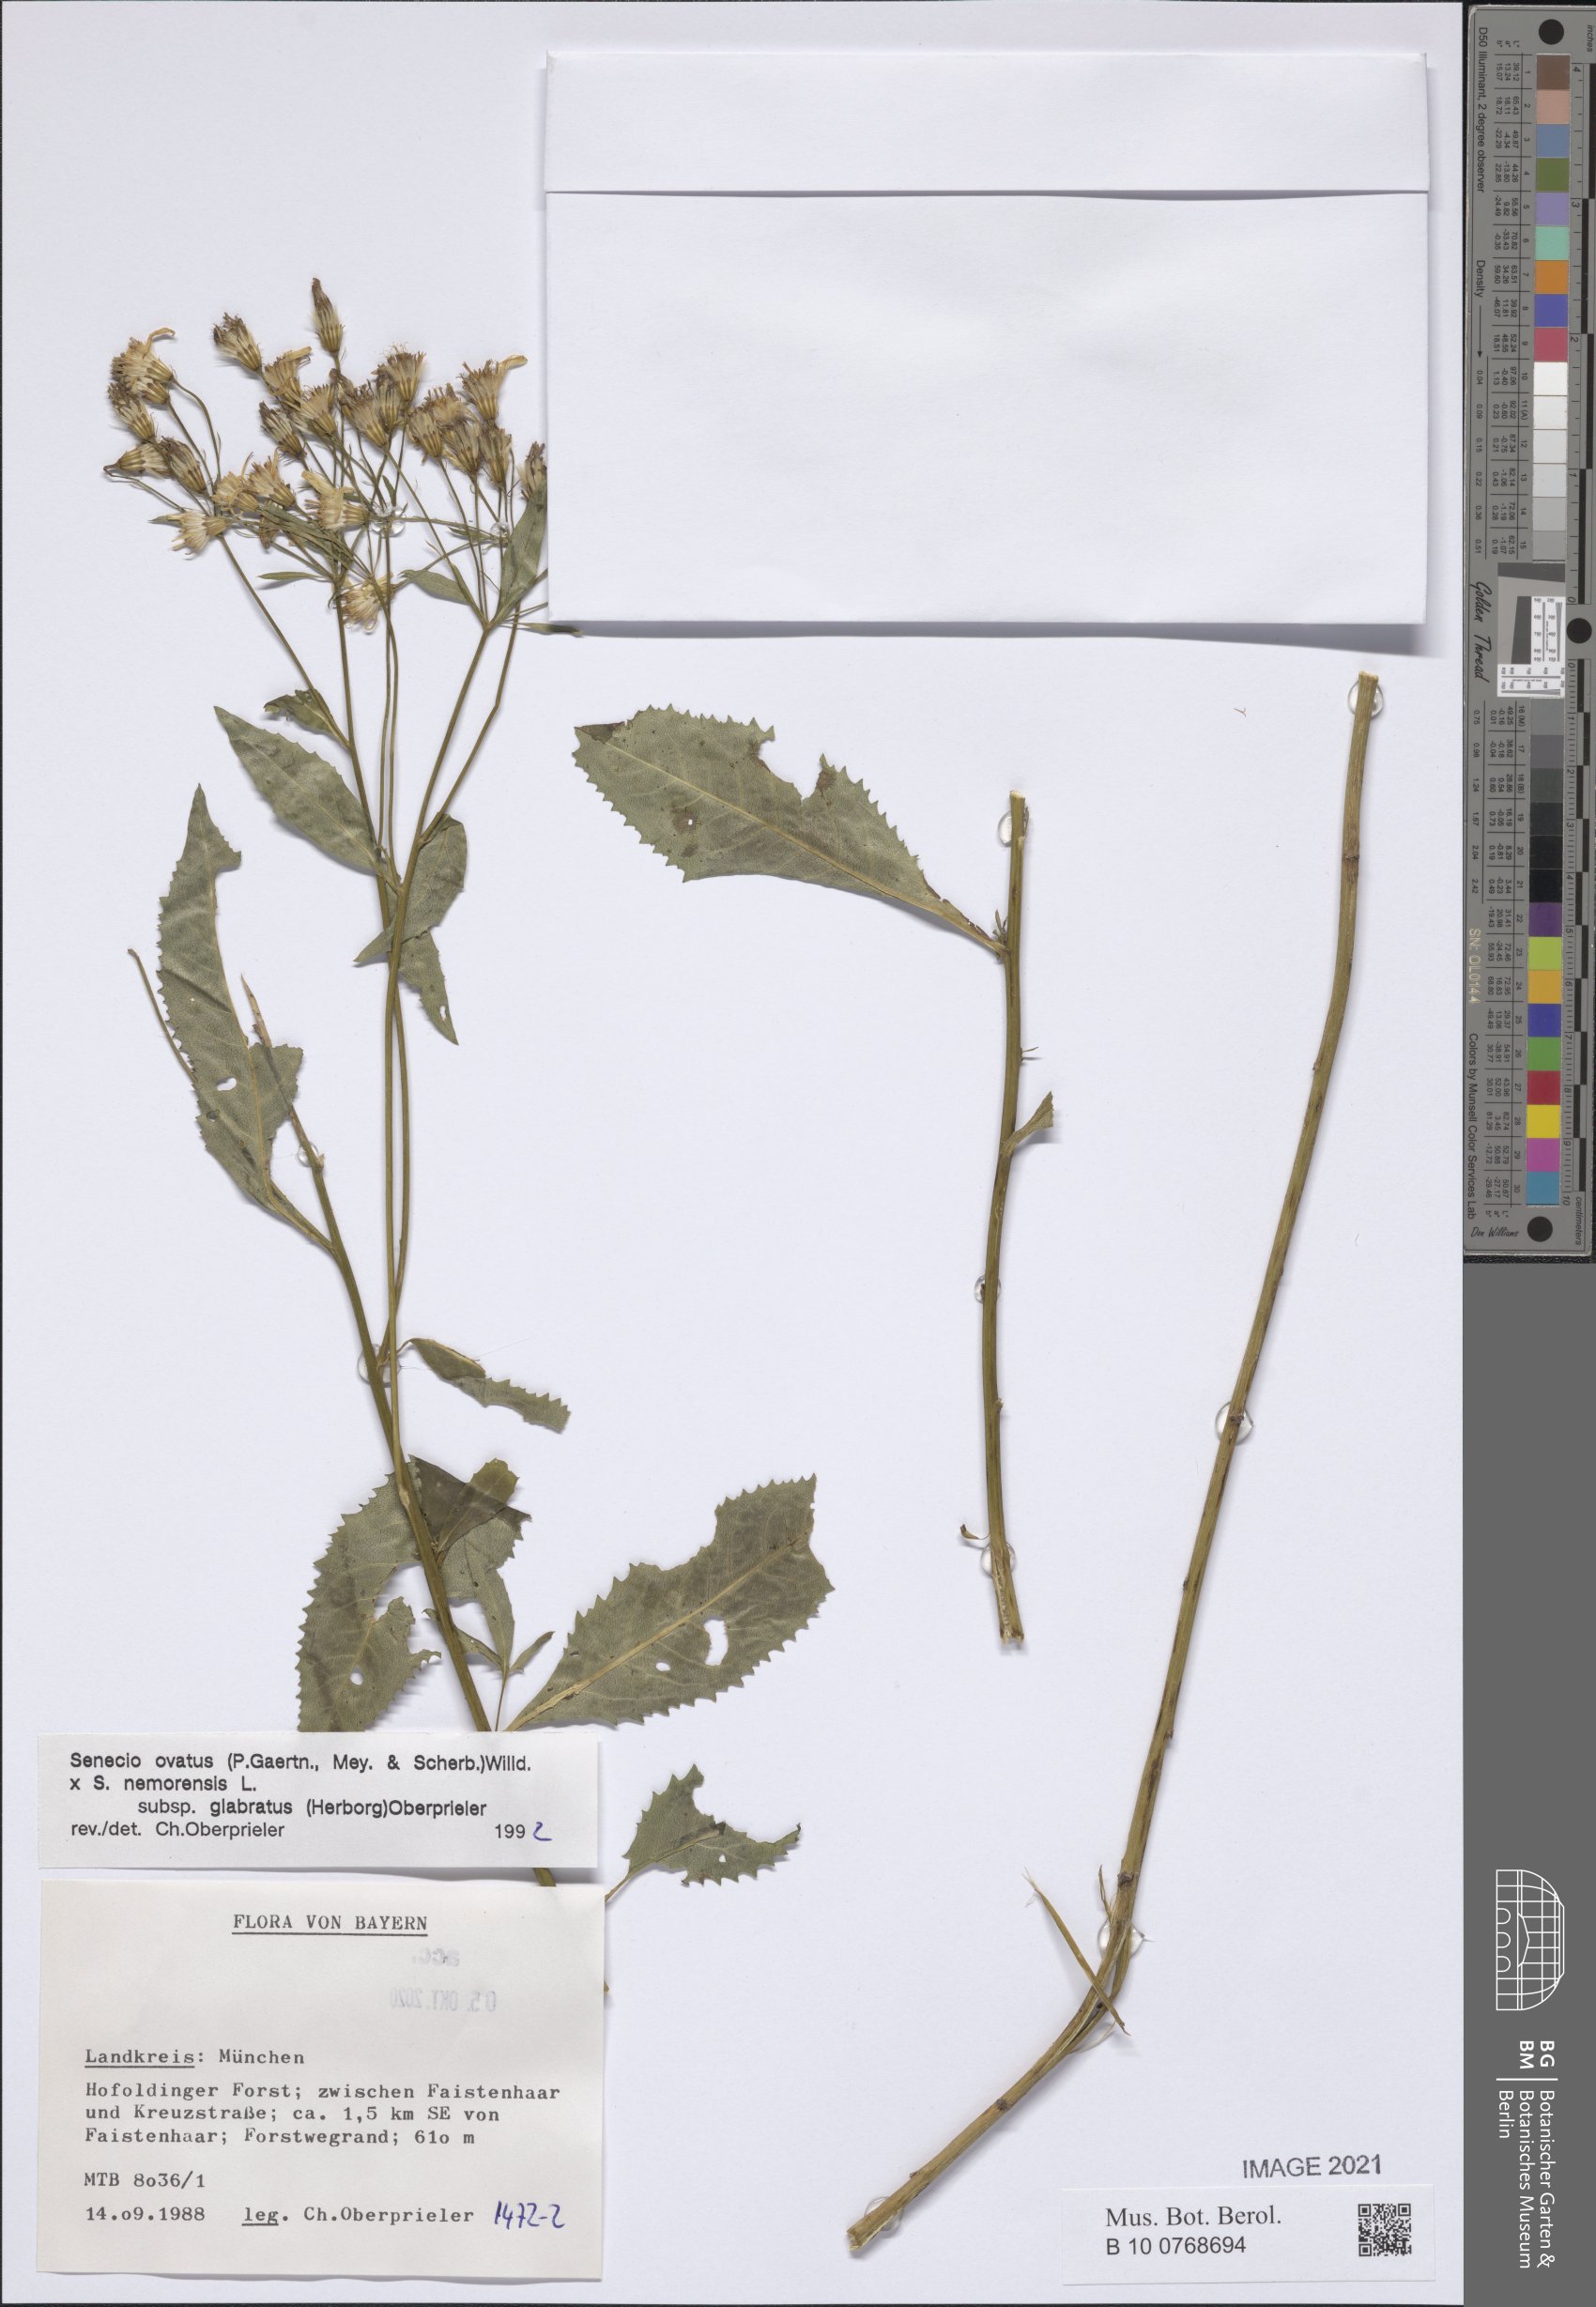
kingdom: Plantae
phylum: Tracheophyta
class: Magnoliopsida
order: Asterales
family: Asteraceae
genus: Senecio
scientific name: Senecio ovatus
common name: Wood ragwort
